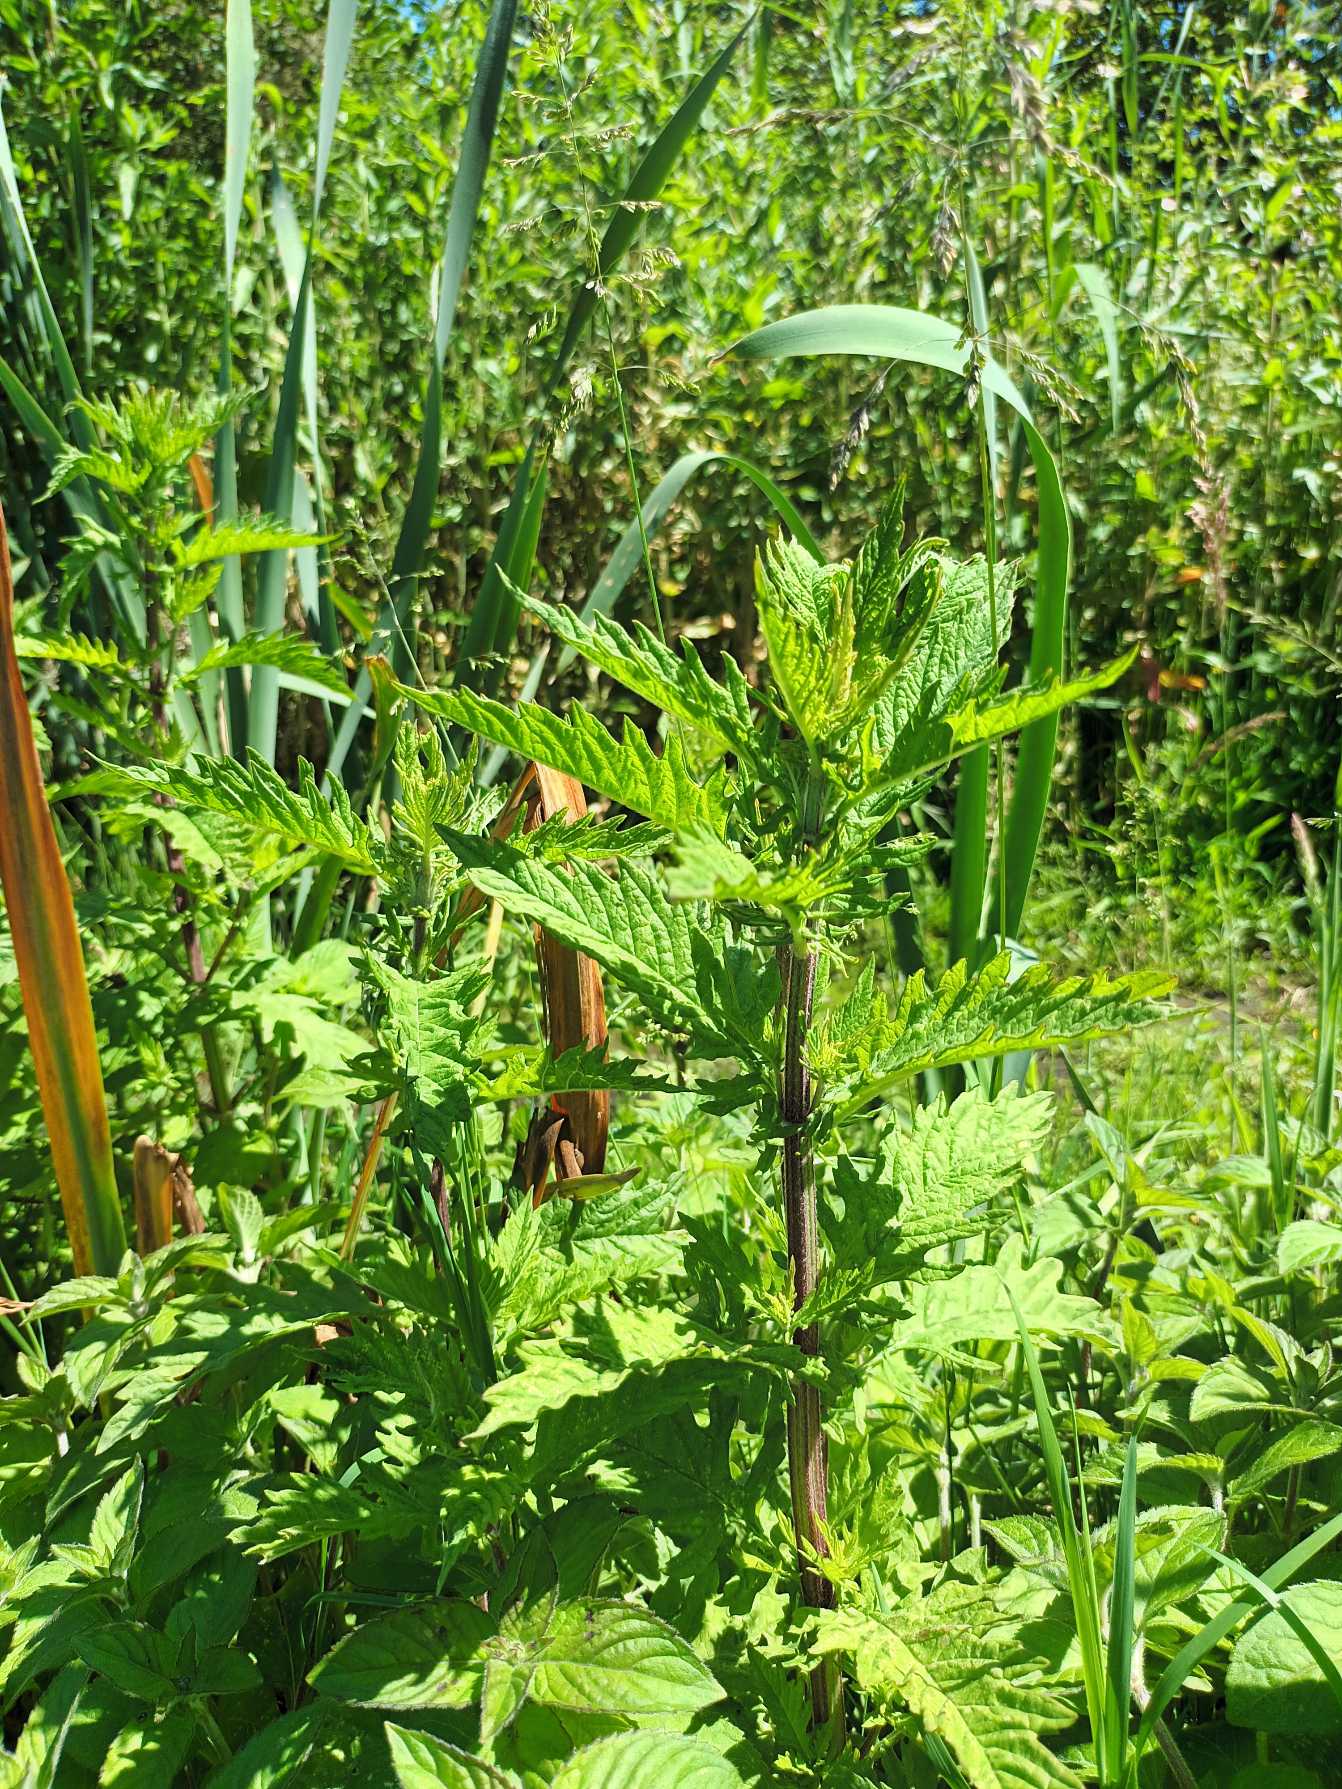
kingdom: Plantae
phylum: Tracheophyta
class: Magnoliopsida
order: Lamiales
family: Lamiaceae
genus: Lycopus
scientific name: Lycopus europaeus
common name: Sværtevæld
